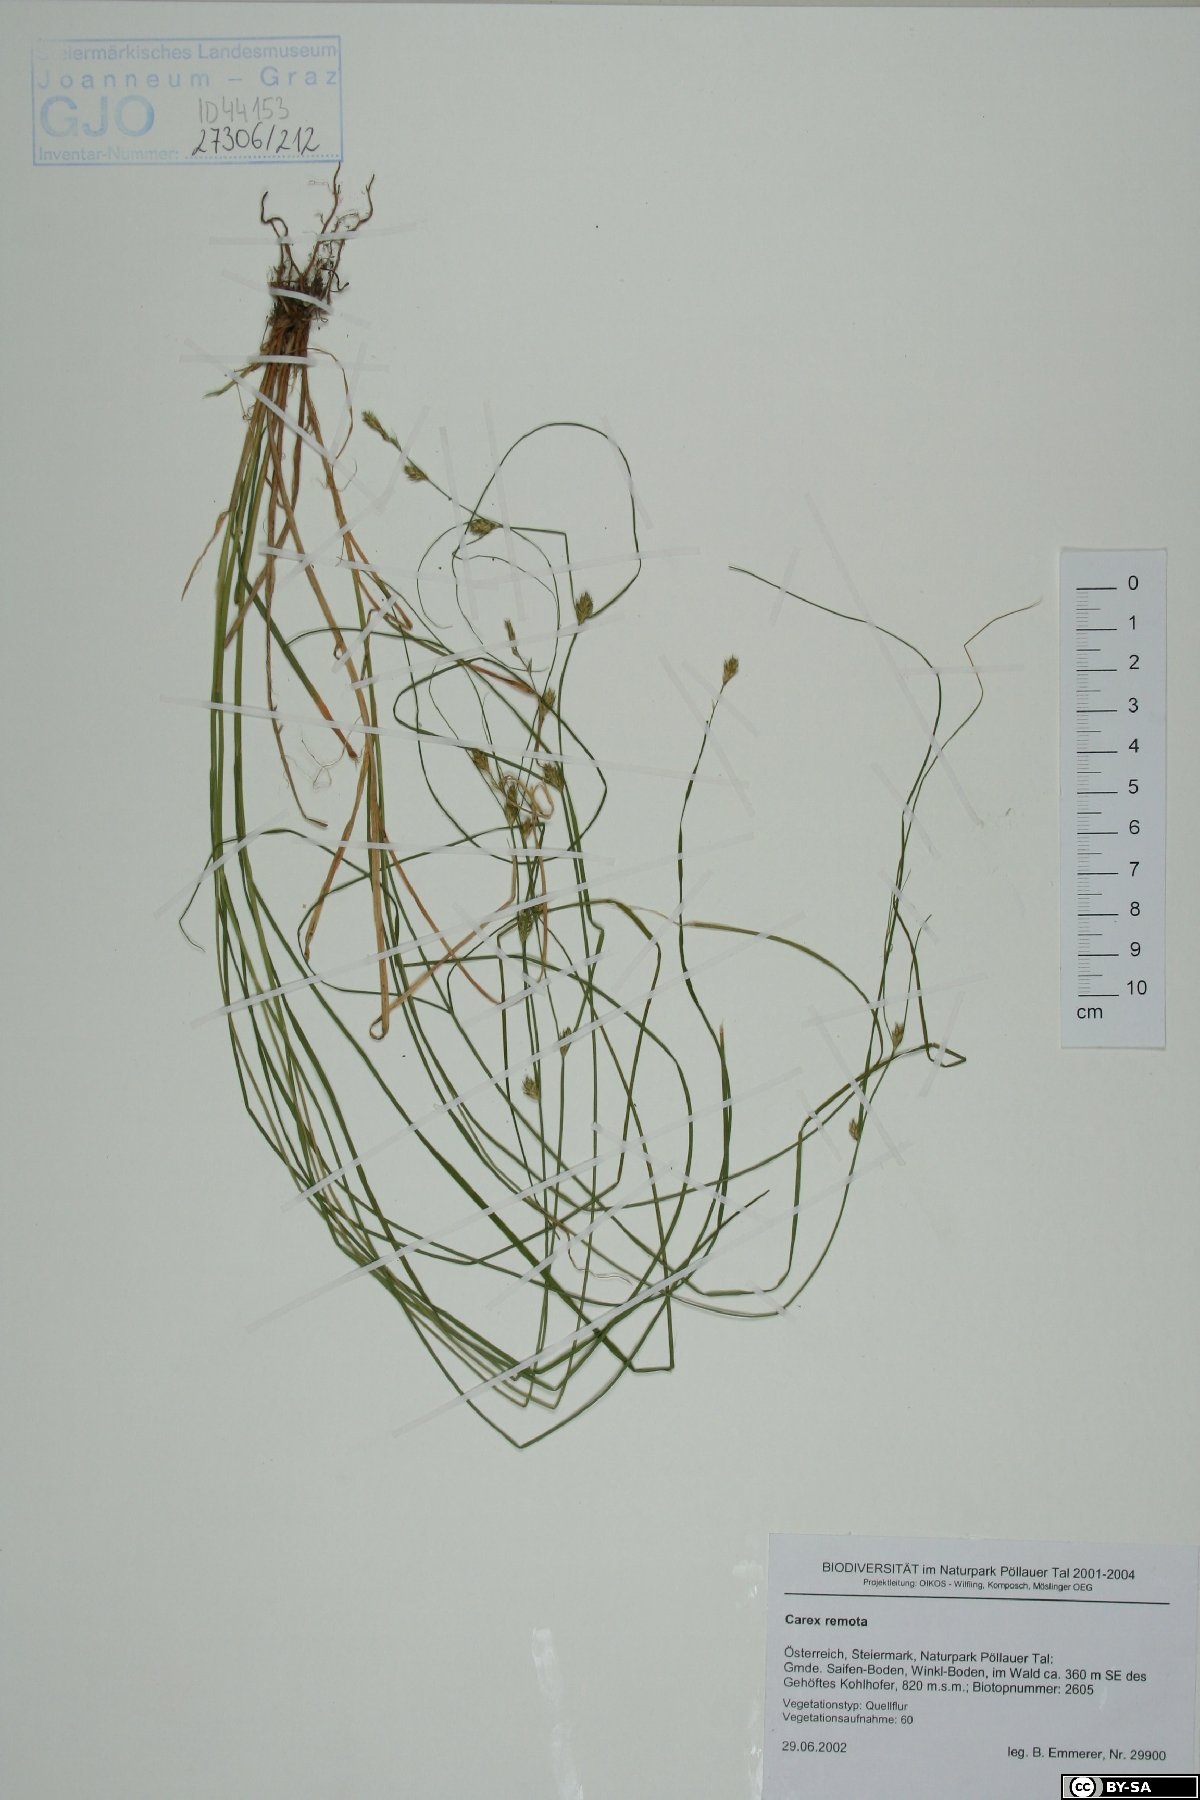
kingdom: Plantae
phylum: Tracheophyta
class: Liliopsida
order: Poales
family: Cyperaceae
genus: Carex
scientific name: Carex remota
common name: Remote sedge
